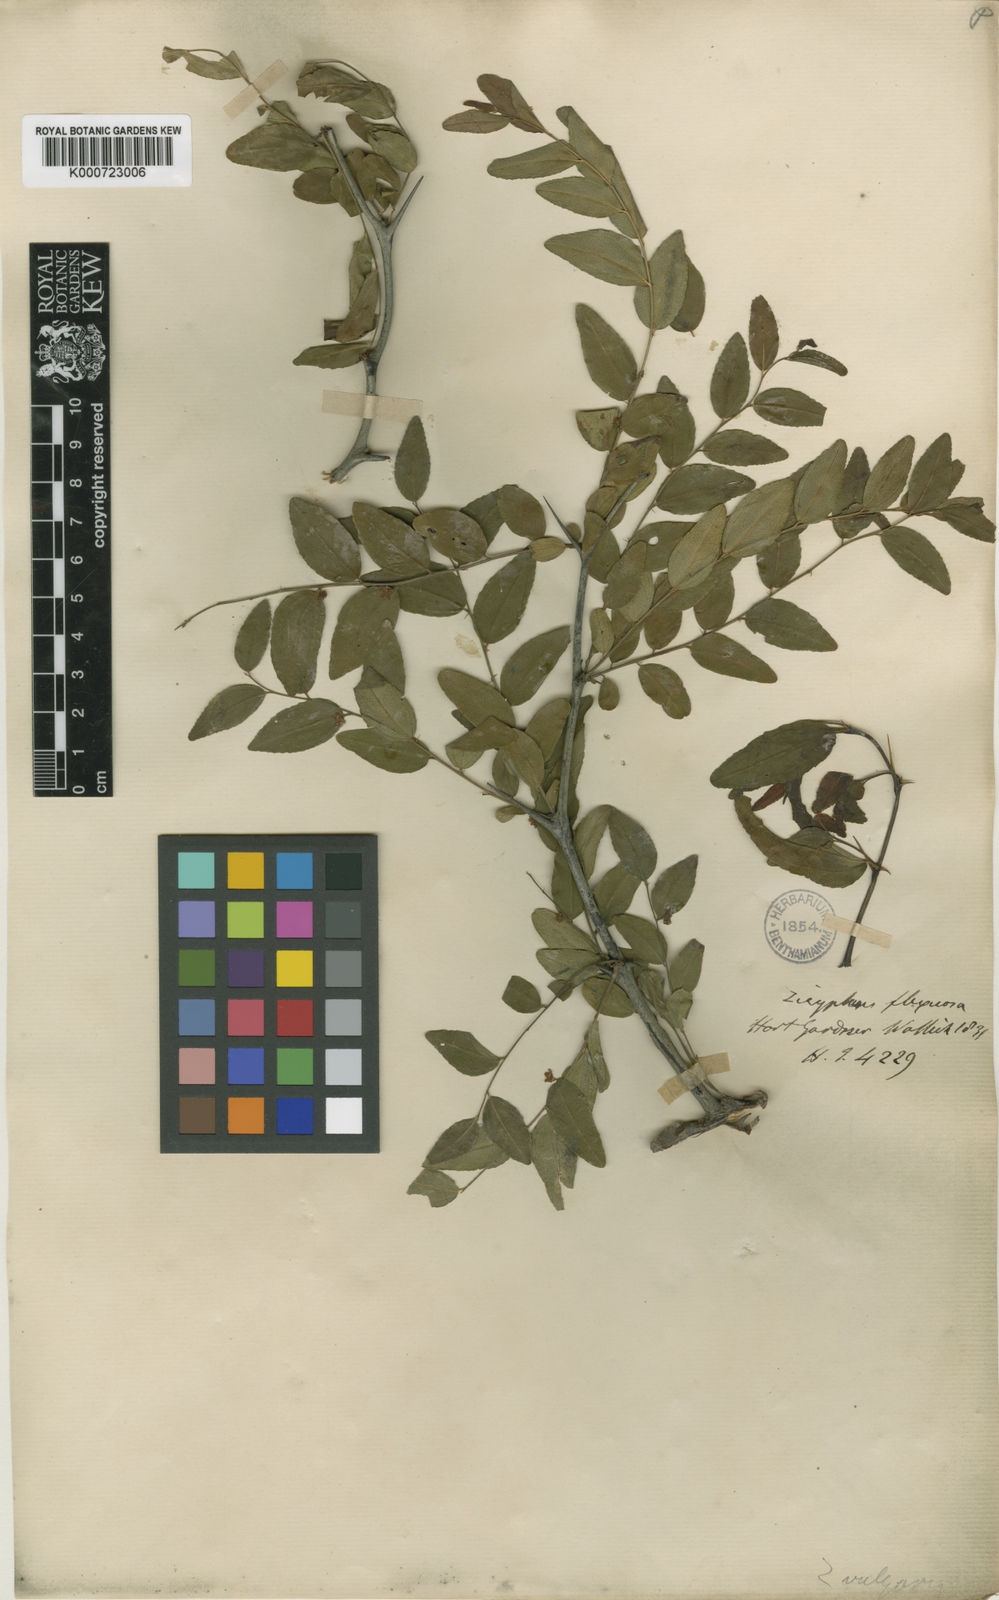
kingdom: Plantae
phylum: Tracheophyta
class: Magnoliopsida
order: Rosales
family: Rhamnaceae
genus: Ziziphus
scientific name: Ziziphus jujuba
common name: Jujube red date
